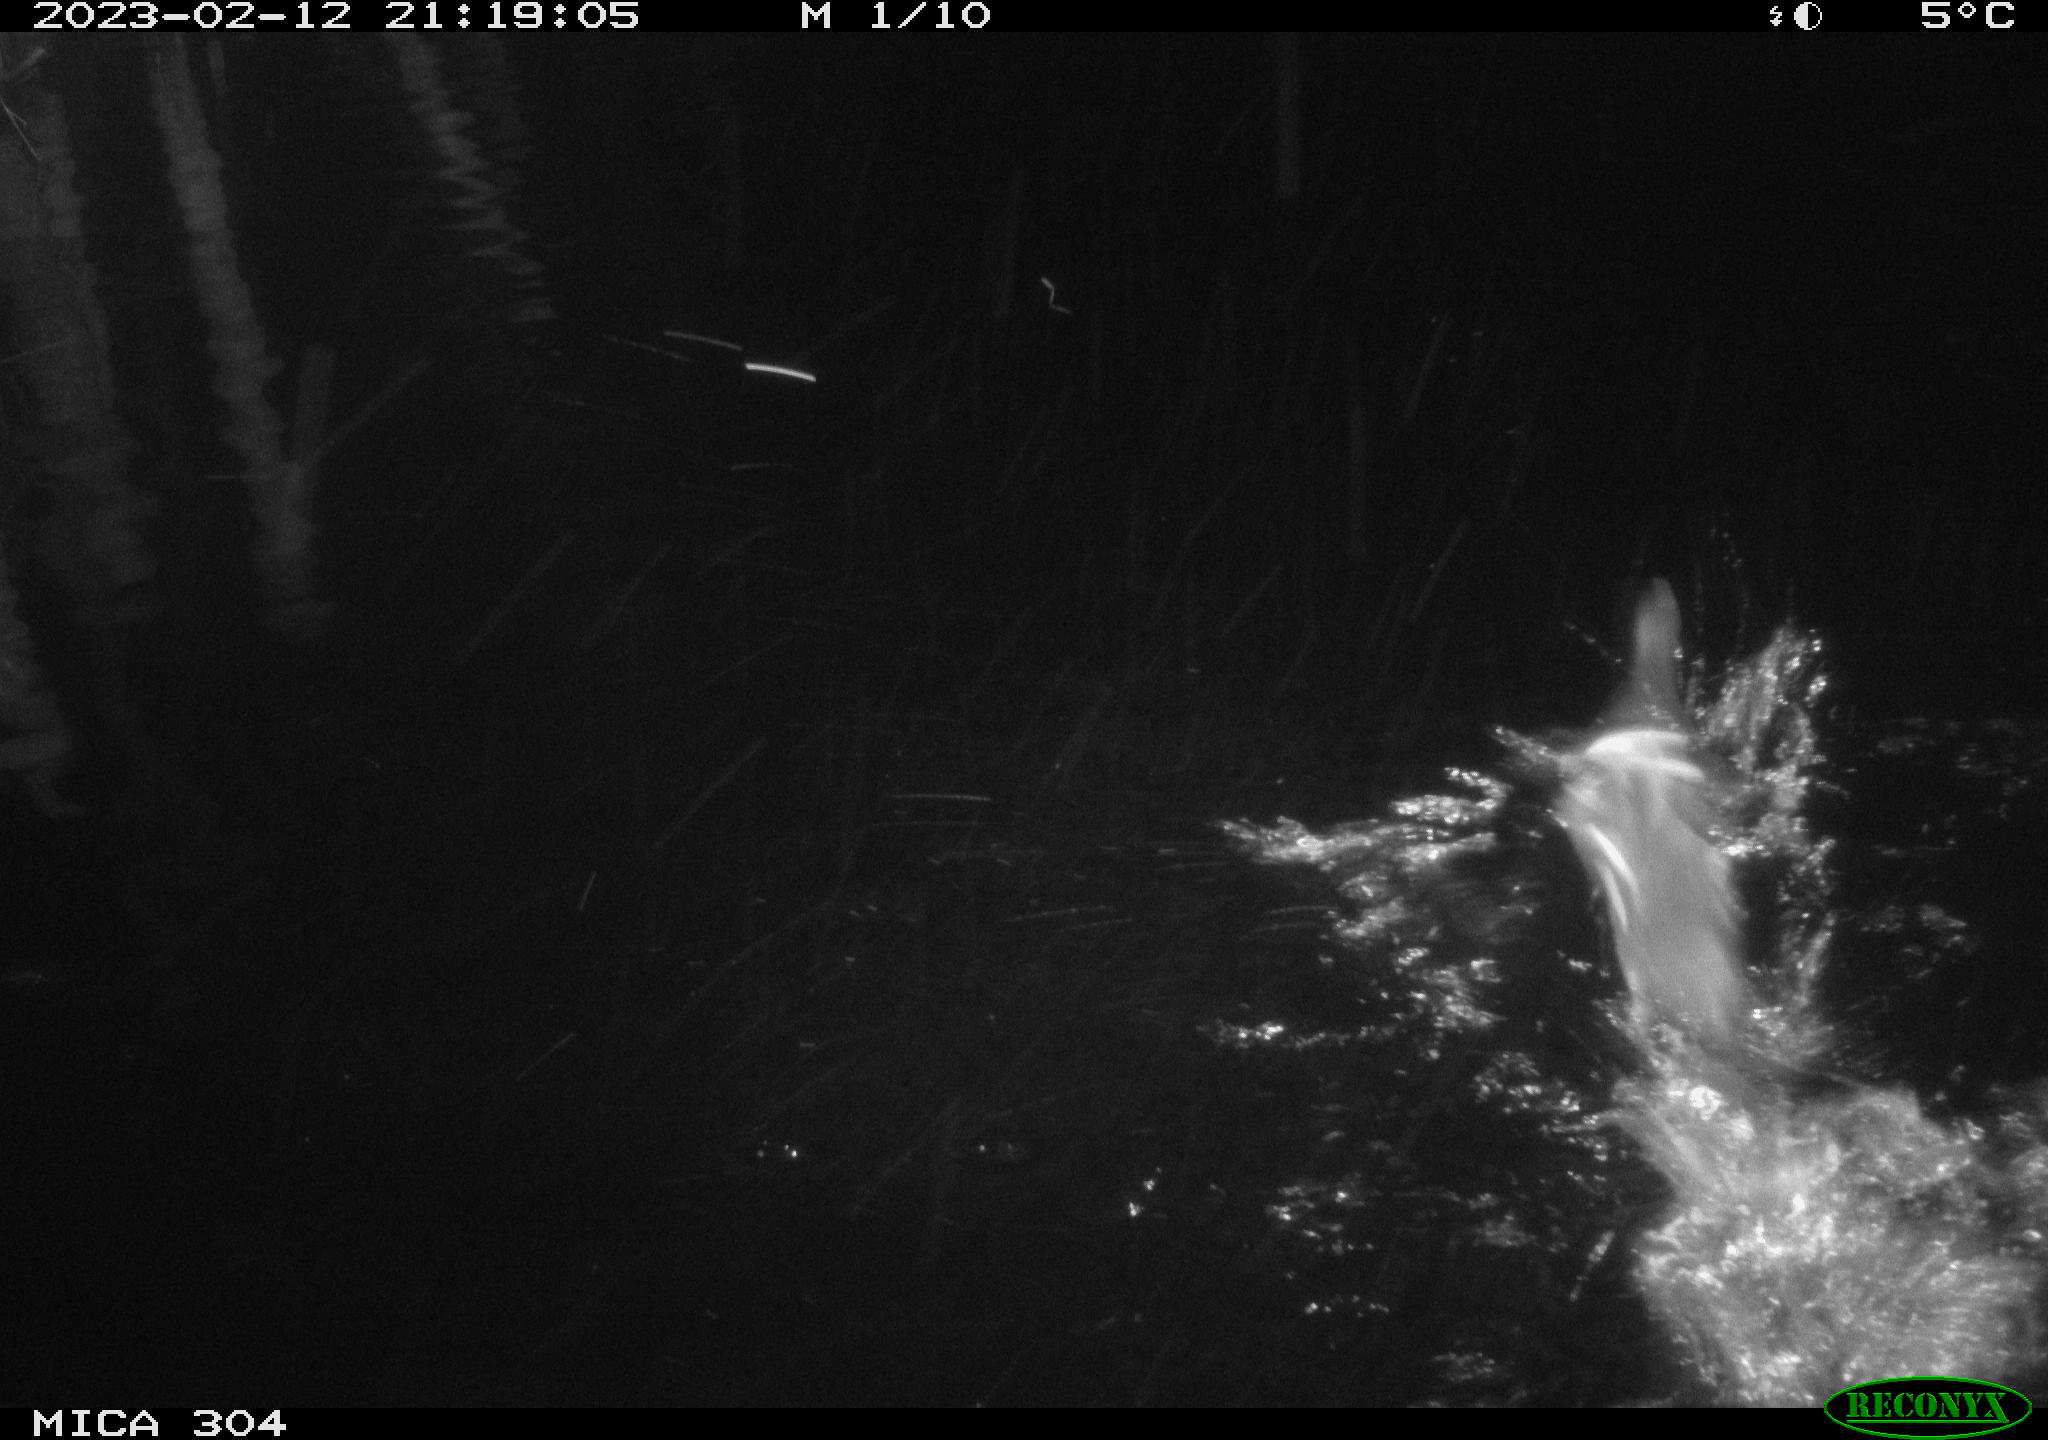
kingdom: Animalia
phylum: Chordata
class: Aves
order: Gruiformes
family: Rallidae
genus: Gallinula
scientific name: Gallinula chloropus
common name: Common moorhen
